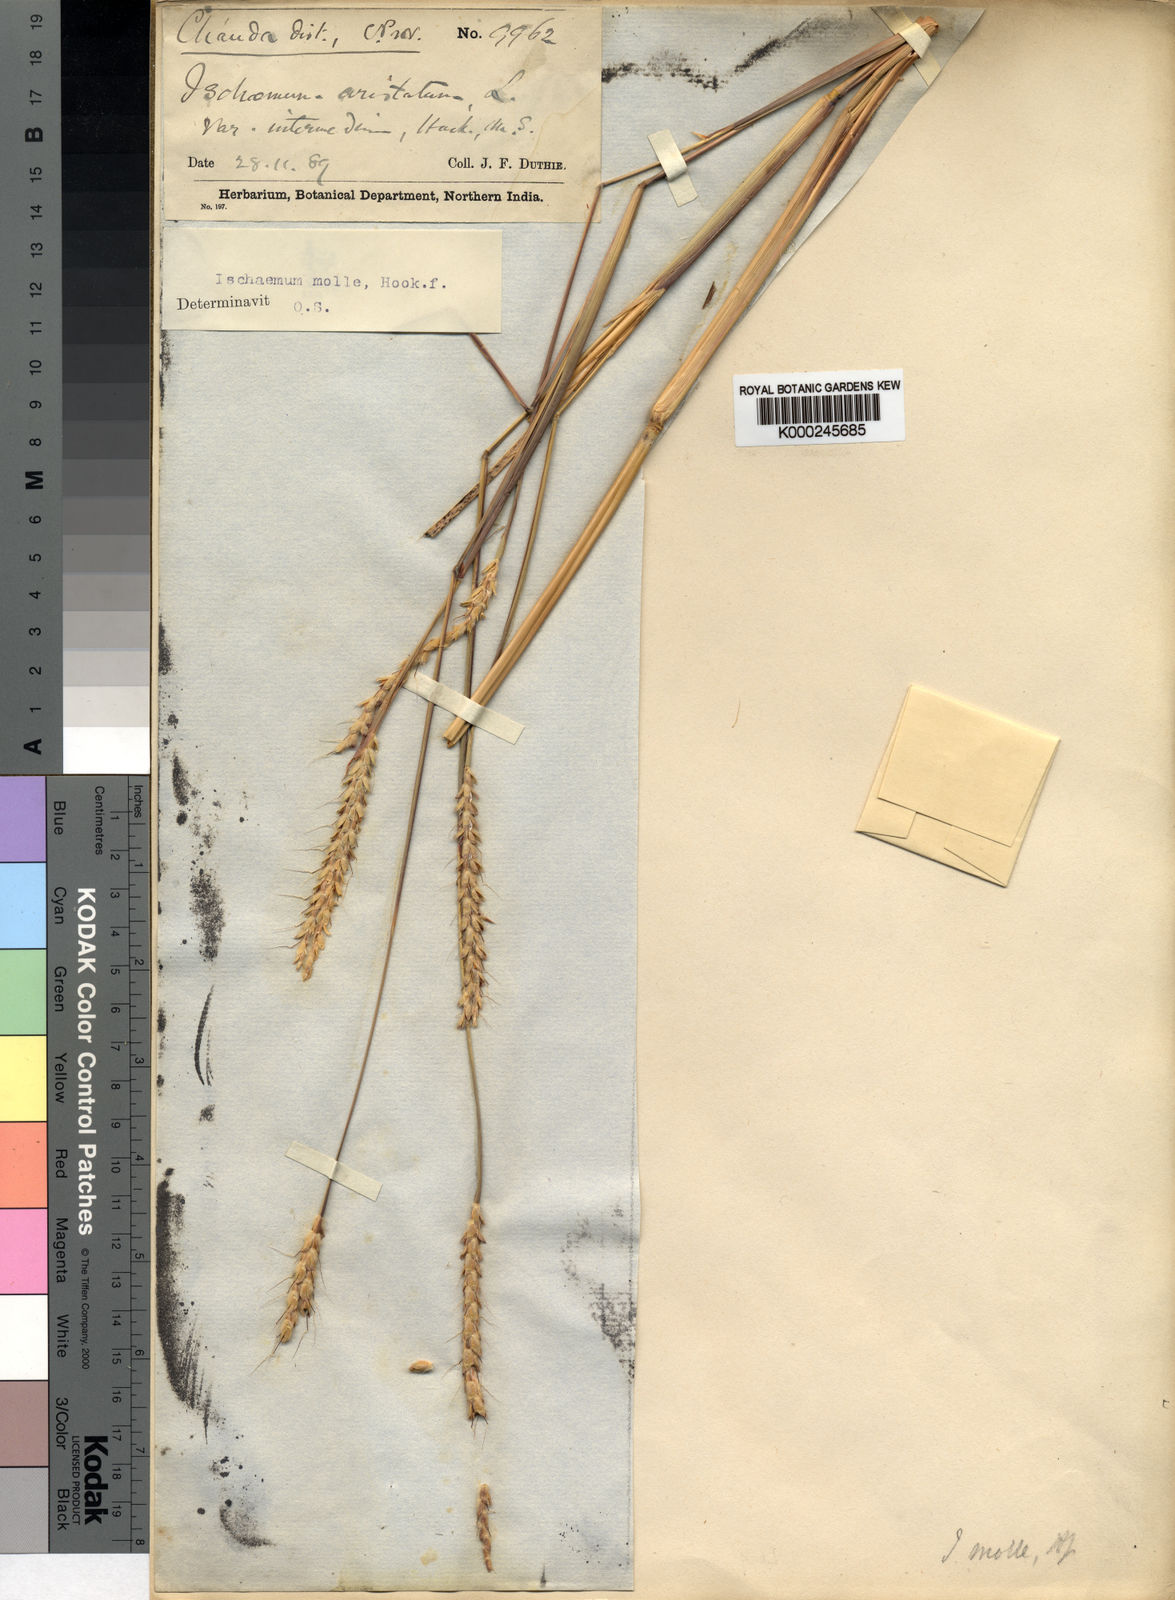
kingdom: Plantae
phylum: Tracheophyta
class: Liliopsida
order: Poales
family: Poaceae
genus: Ischaemum
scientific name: Ischaemum molle
